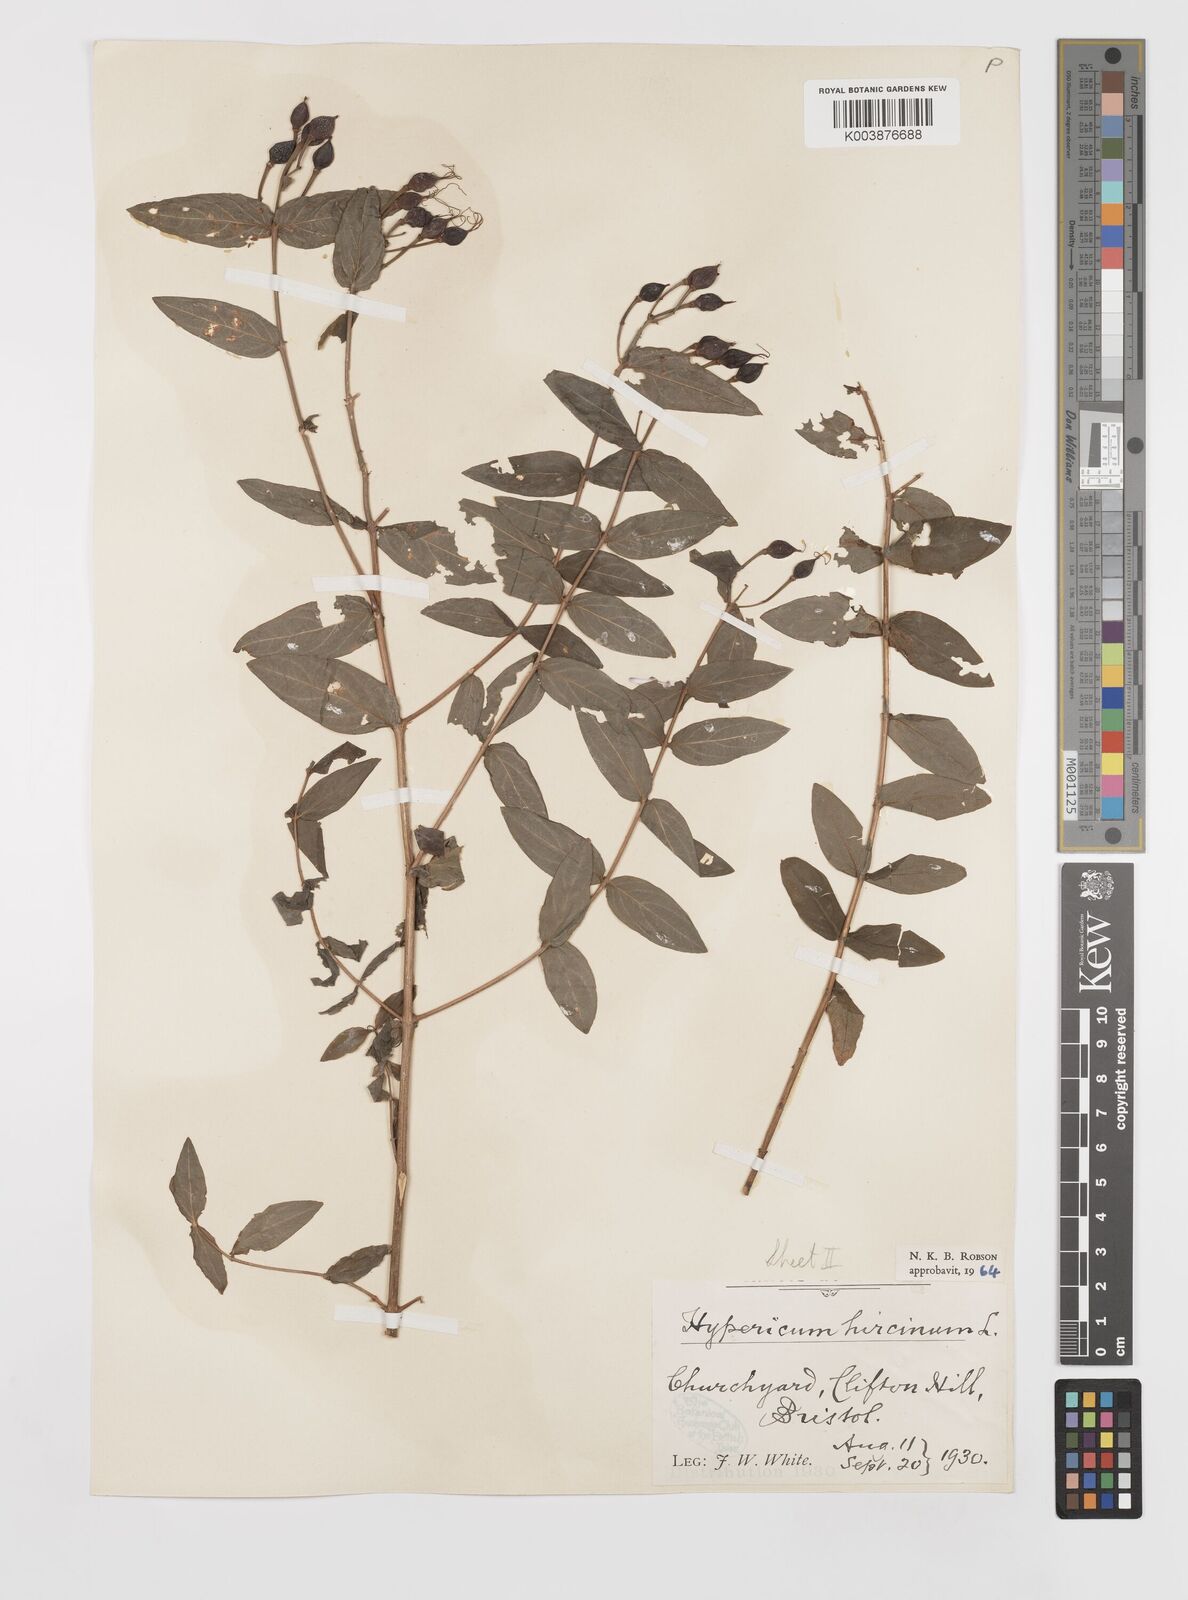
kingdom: Plantae
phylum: Tracheophyta
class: Magnoliopsida
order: Malpighiales
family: Hypericaceae
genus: Hypericum
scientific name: Hypericum hircinum
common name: Stinking tutsan
